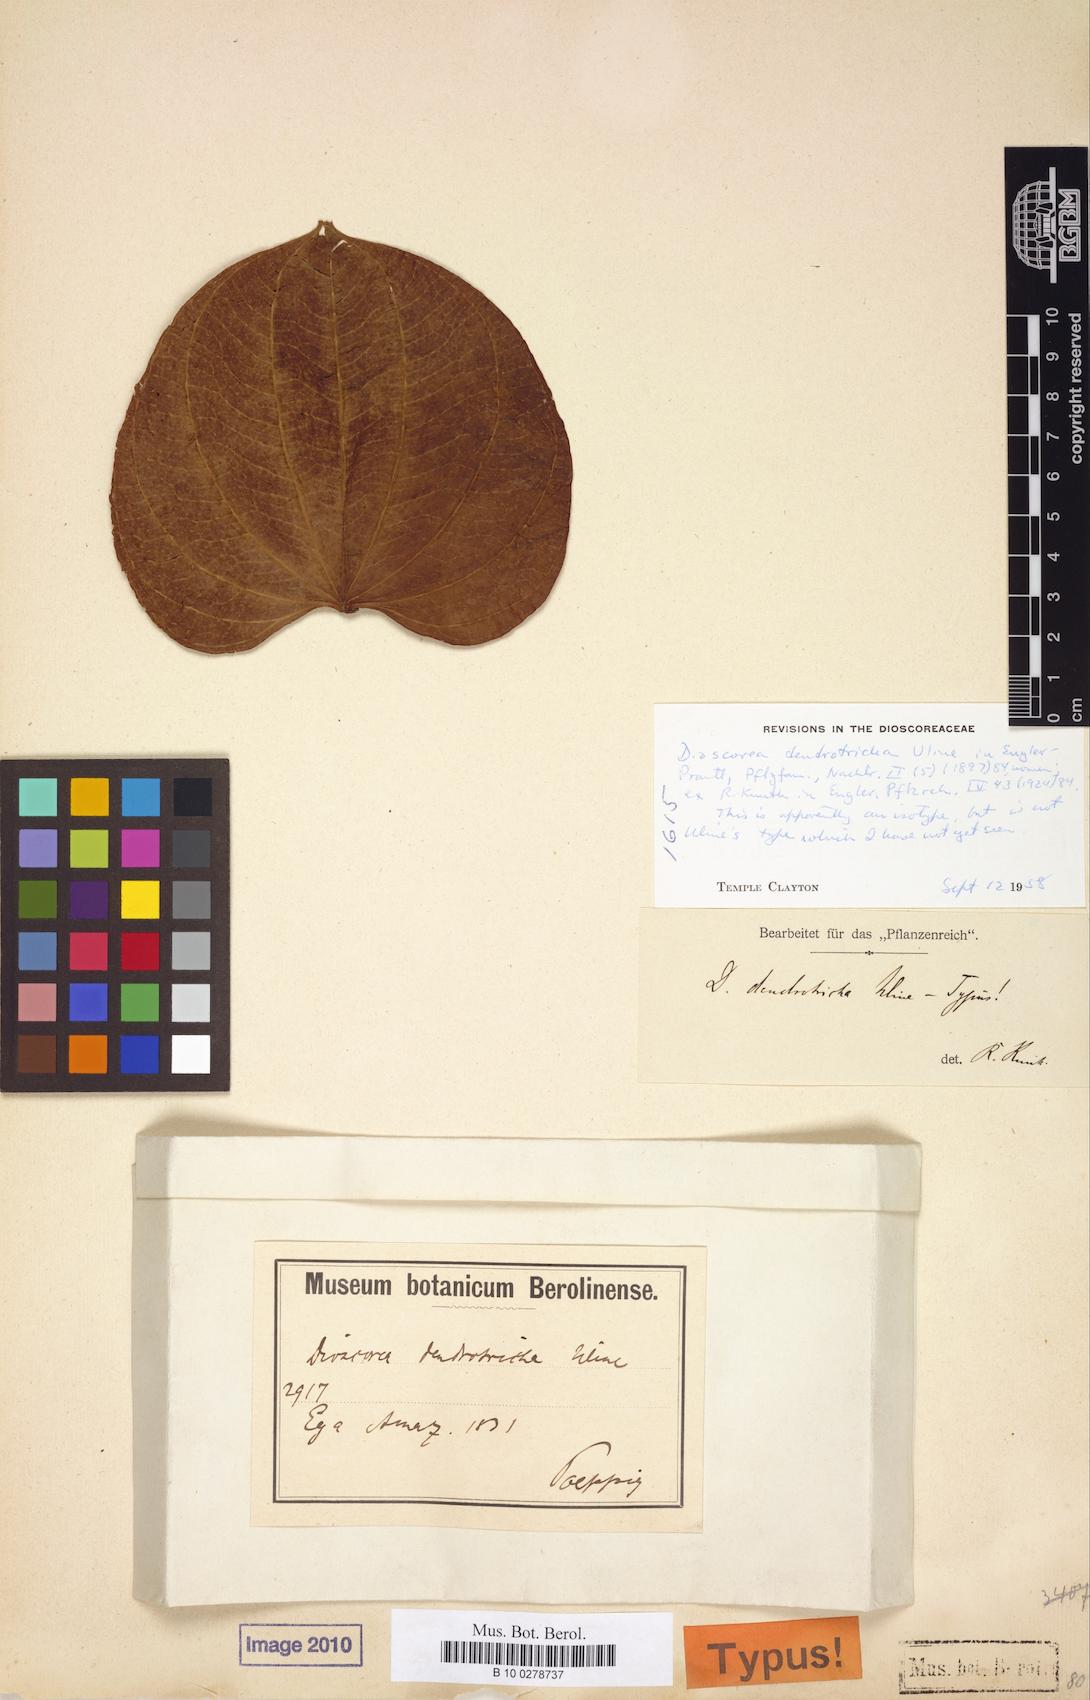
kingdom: Plantae
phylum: Tracheophyta
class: Liliopsida
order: Dioscoreales
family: Dioscoreaceae
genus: Dioscorea
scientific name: Dioscorea dendrotricha
